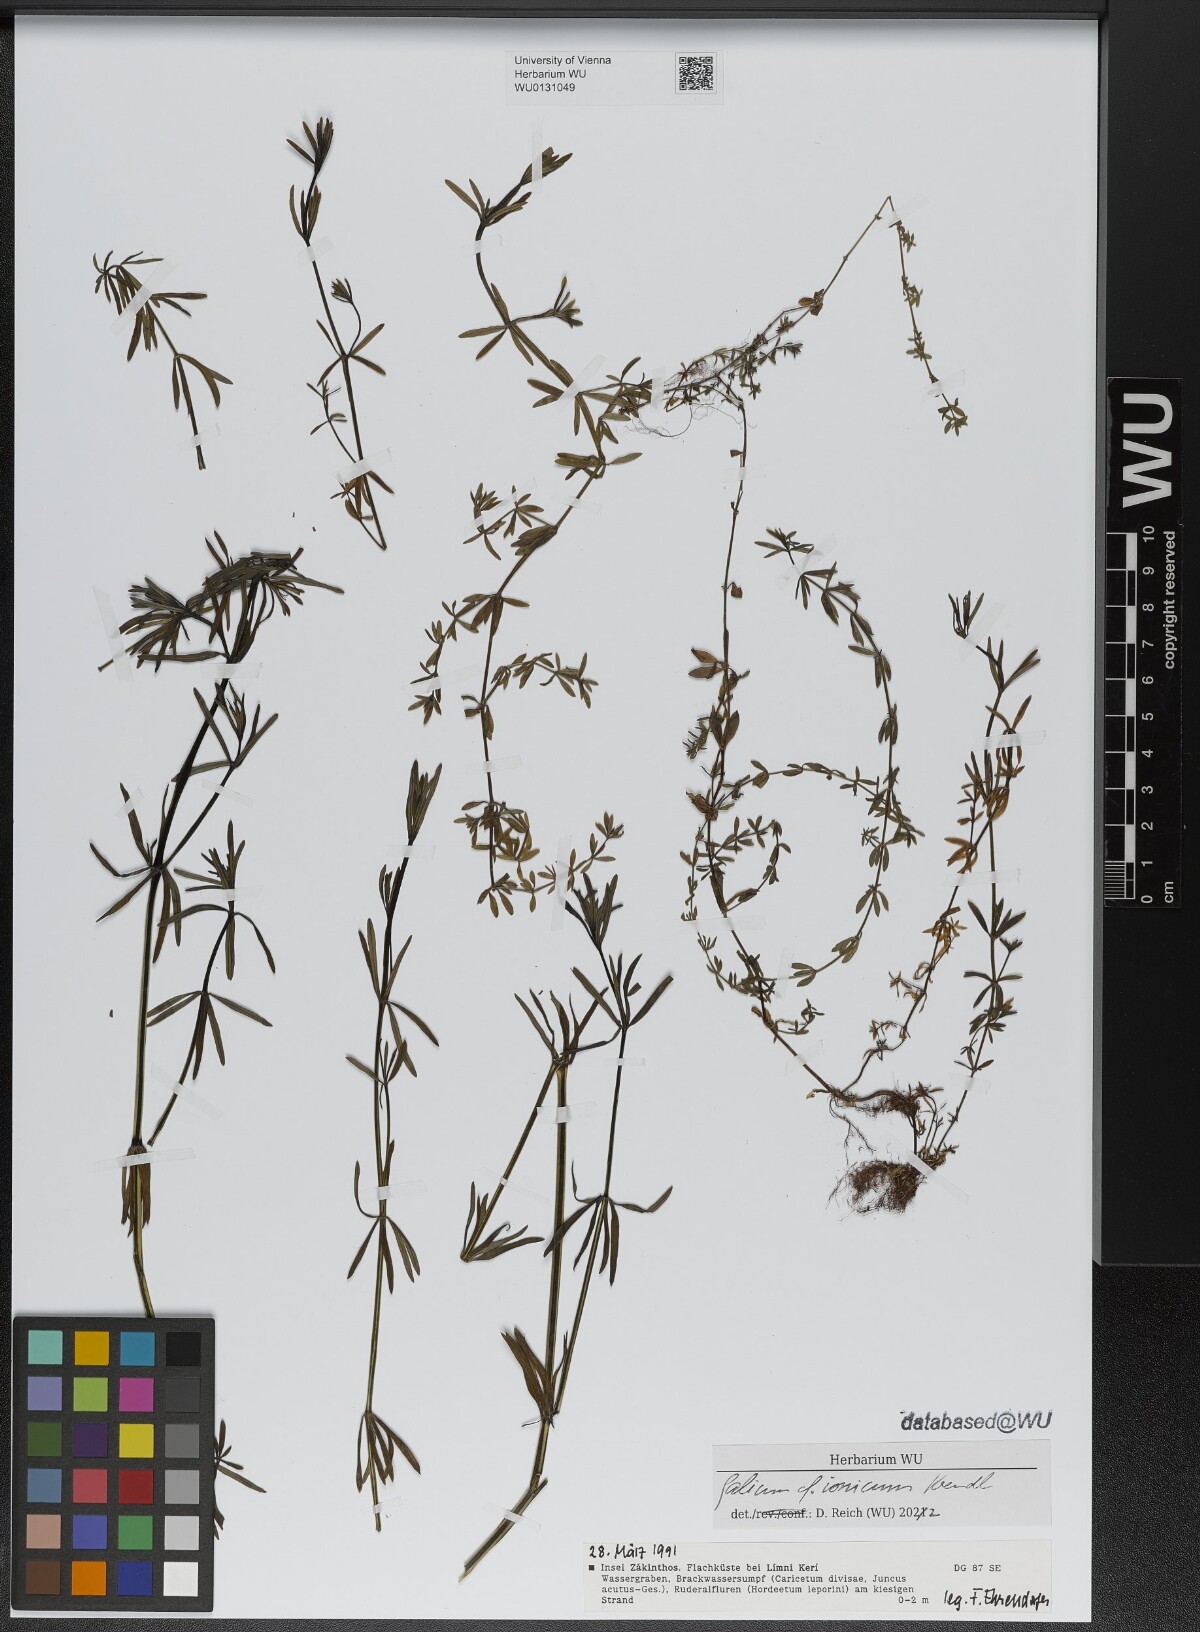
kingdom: Plantae
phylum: Tracheophyta
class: Magnoliopsida
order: Gentianales
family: Rubiaceae
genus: Galium
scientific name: Galium ionicum
